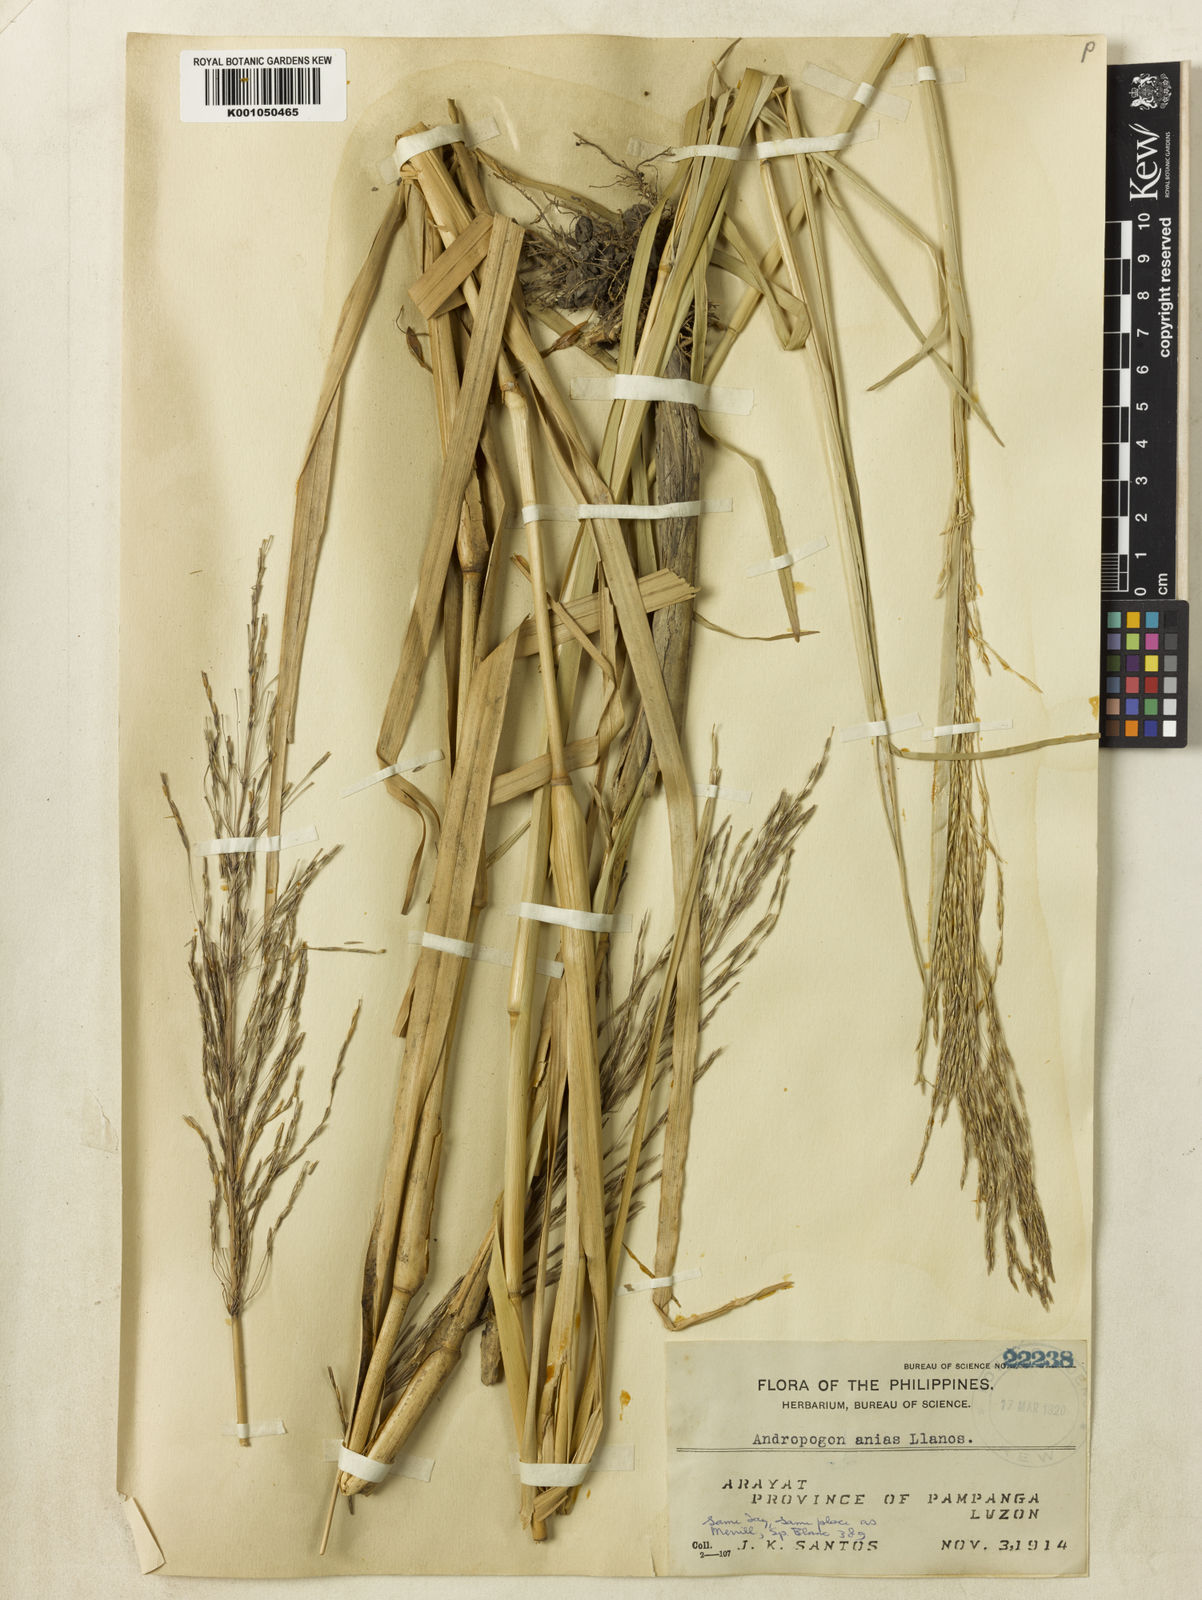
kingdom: Plantae
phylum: Tracheophyta
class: Liliopsida
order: Poales
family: Poaceae
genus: Chrysopogon
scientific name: Chrysopogon festucoides
